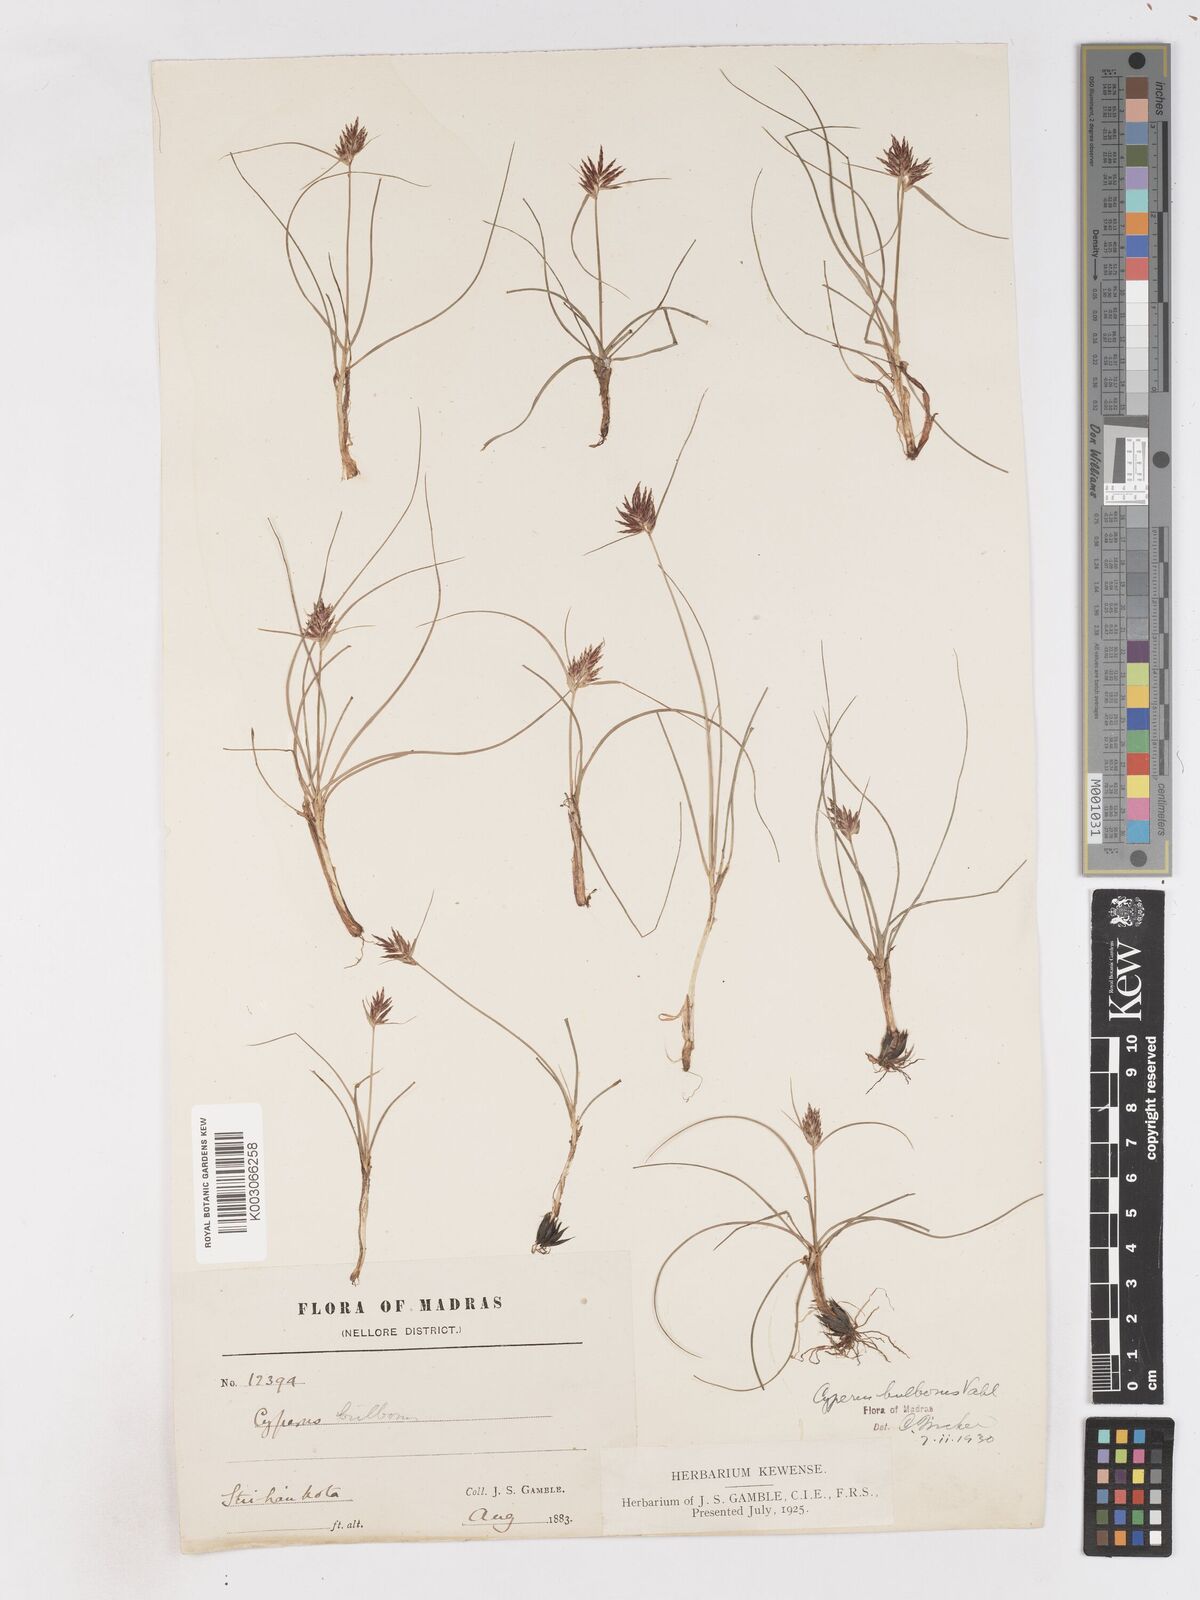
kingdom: Plantae
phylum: Tracheophyta
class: Liliopsida
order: Poales
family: Cyperaceae
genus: Cyperus
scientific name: Cyperus bulbosus
